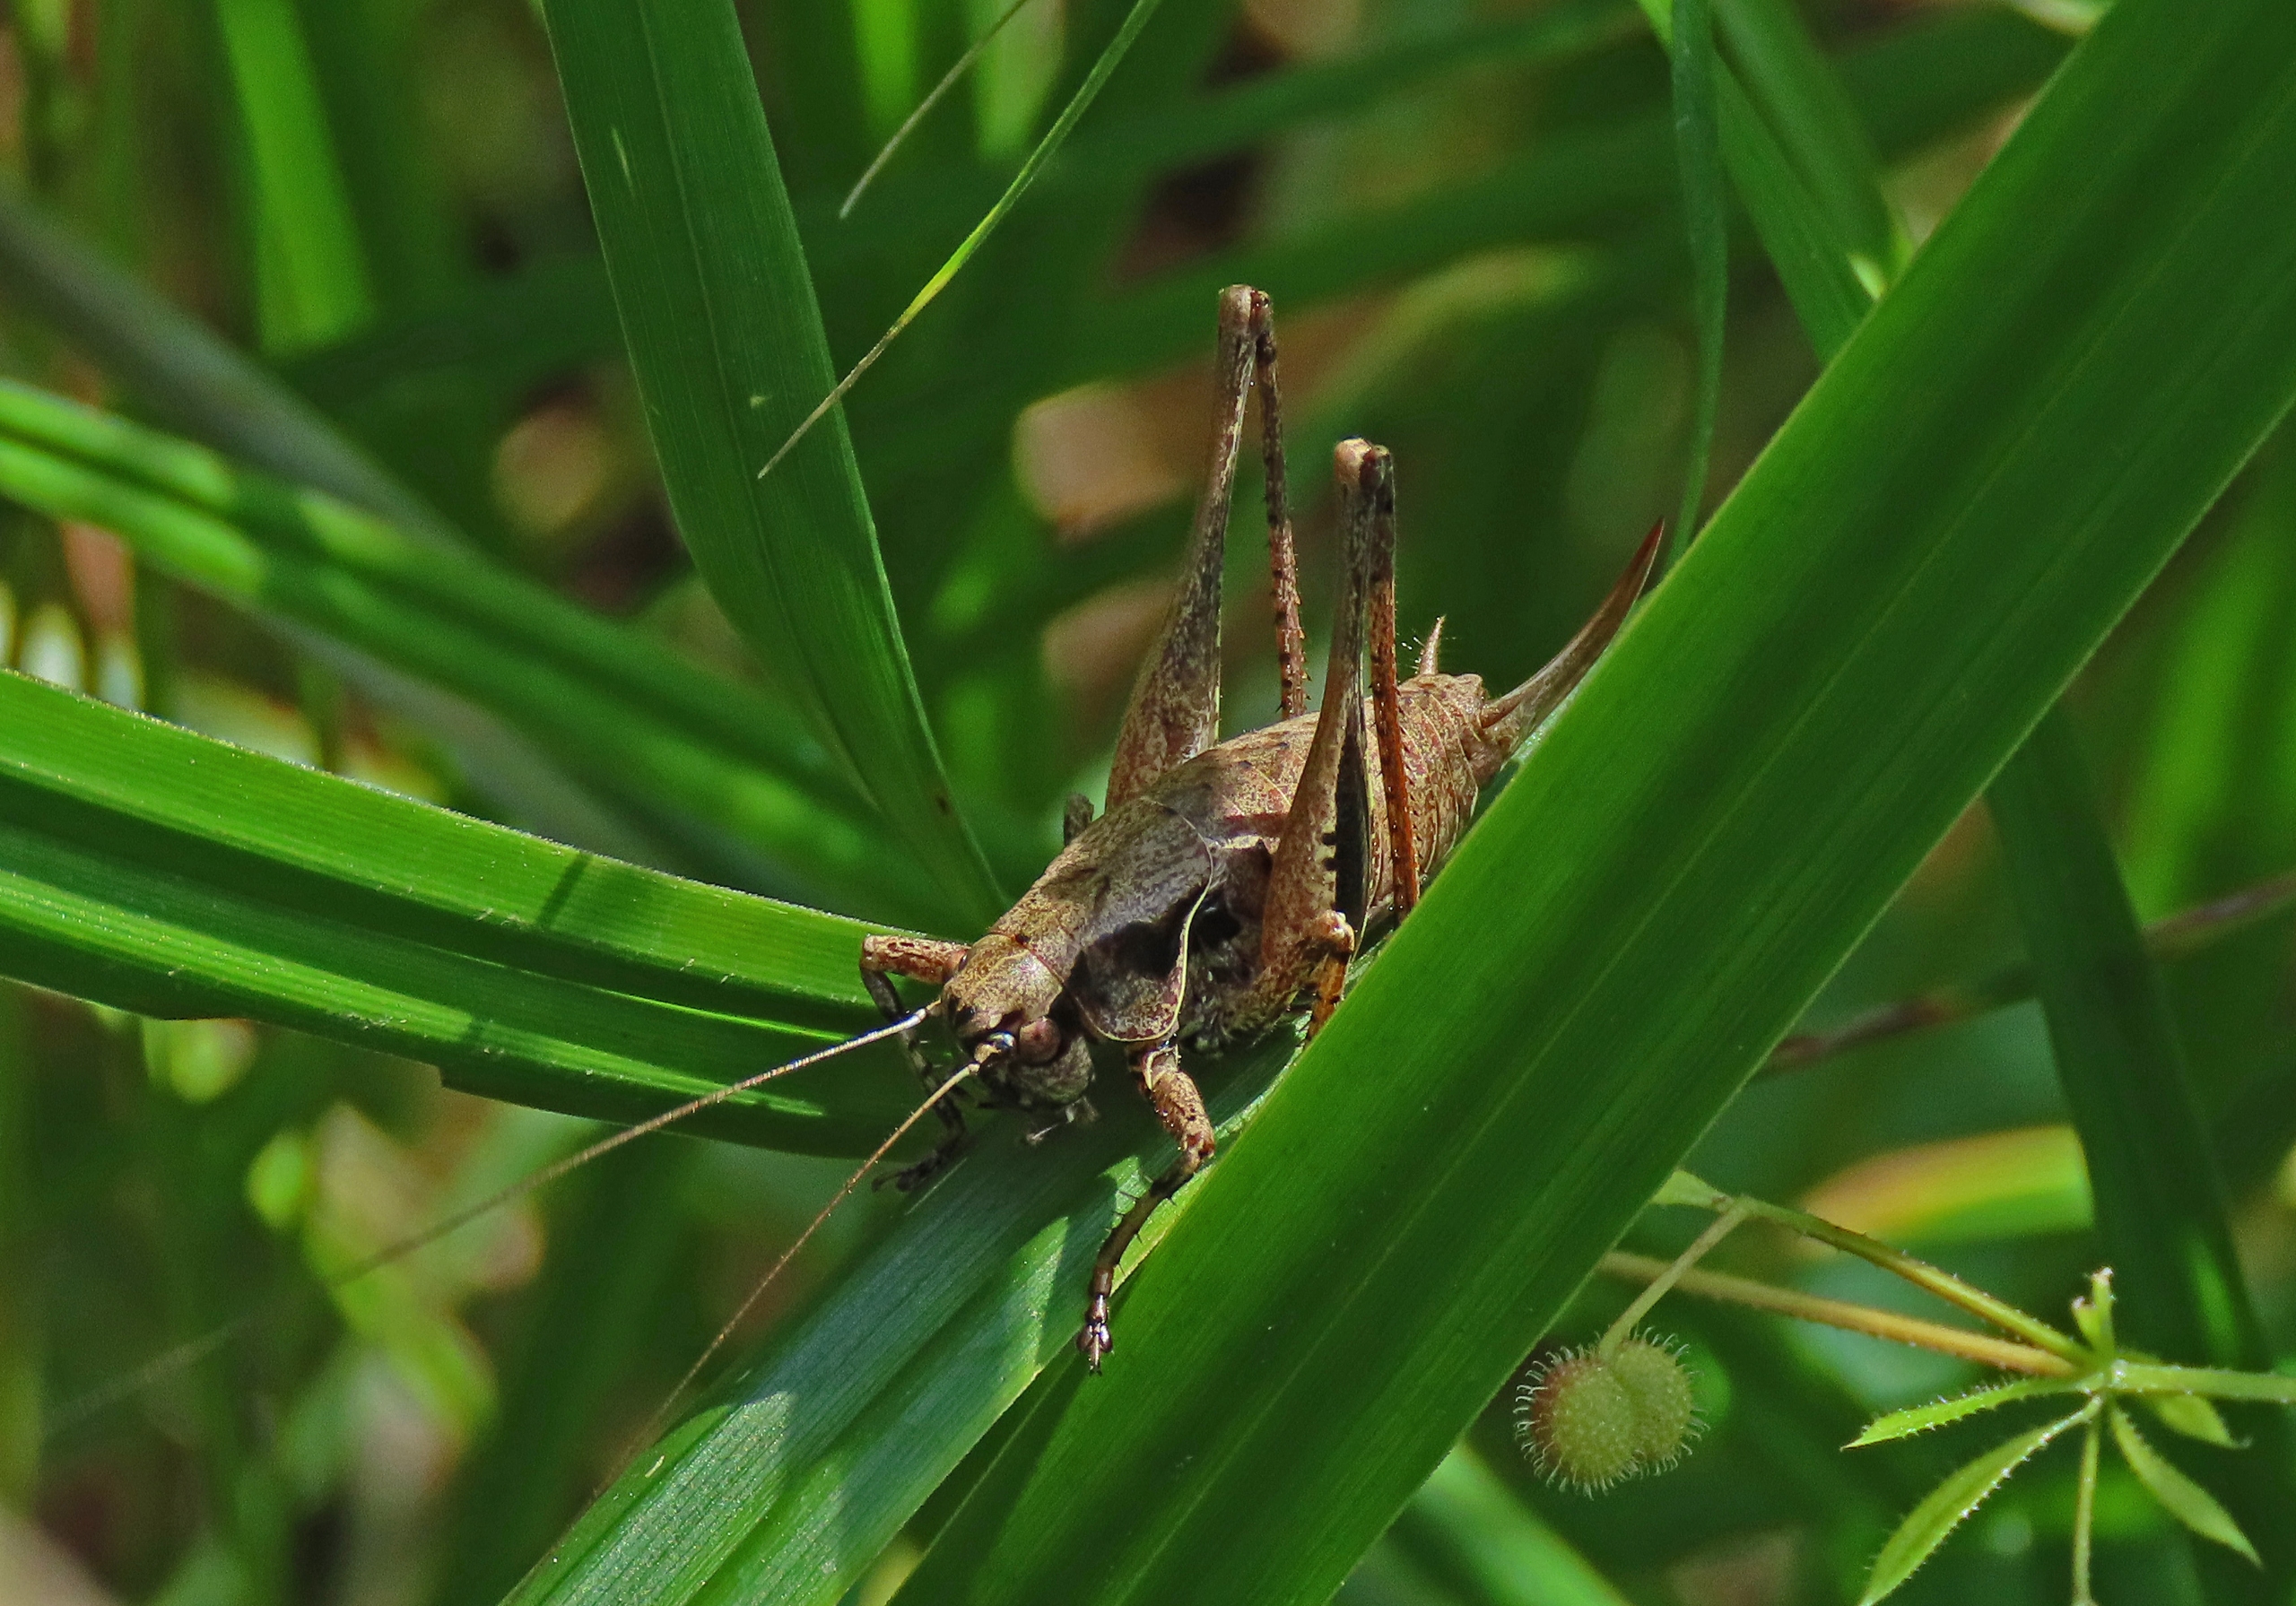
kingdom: Animalia
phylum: Arthropoda
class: Insecta
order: Orthoptera
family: Tettigoniidae
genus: Pholidoptera
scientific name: Pholidoptera griseoaptera
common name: Buskgræshoppe
